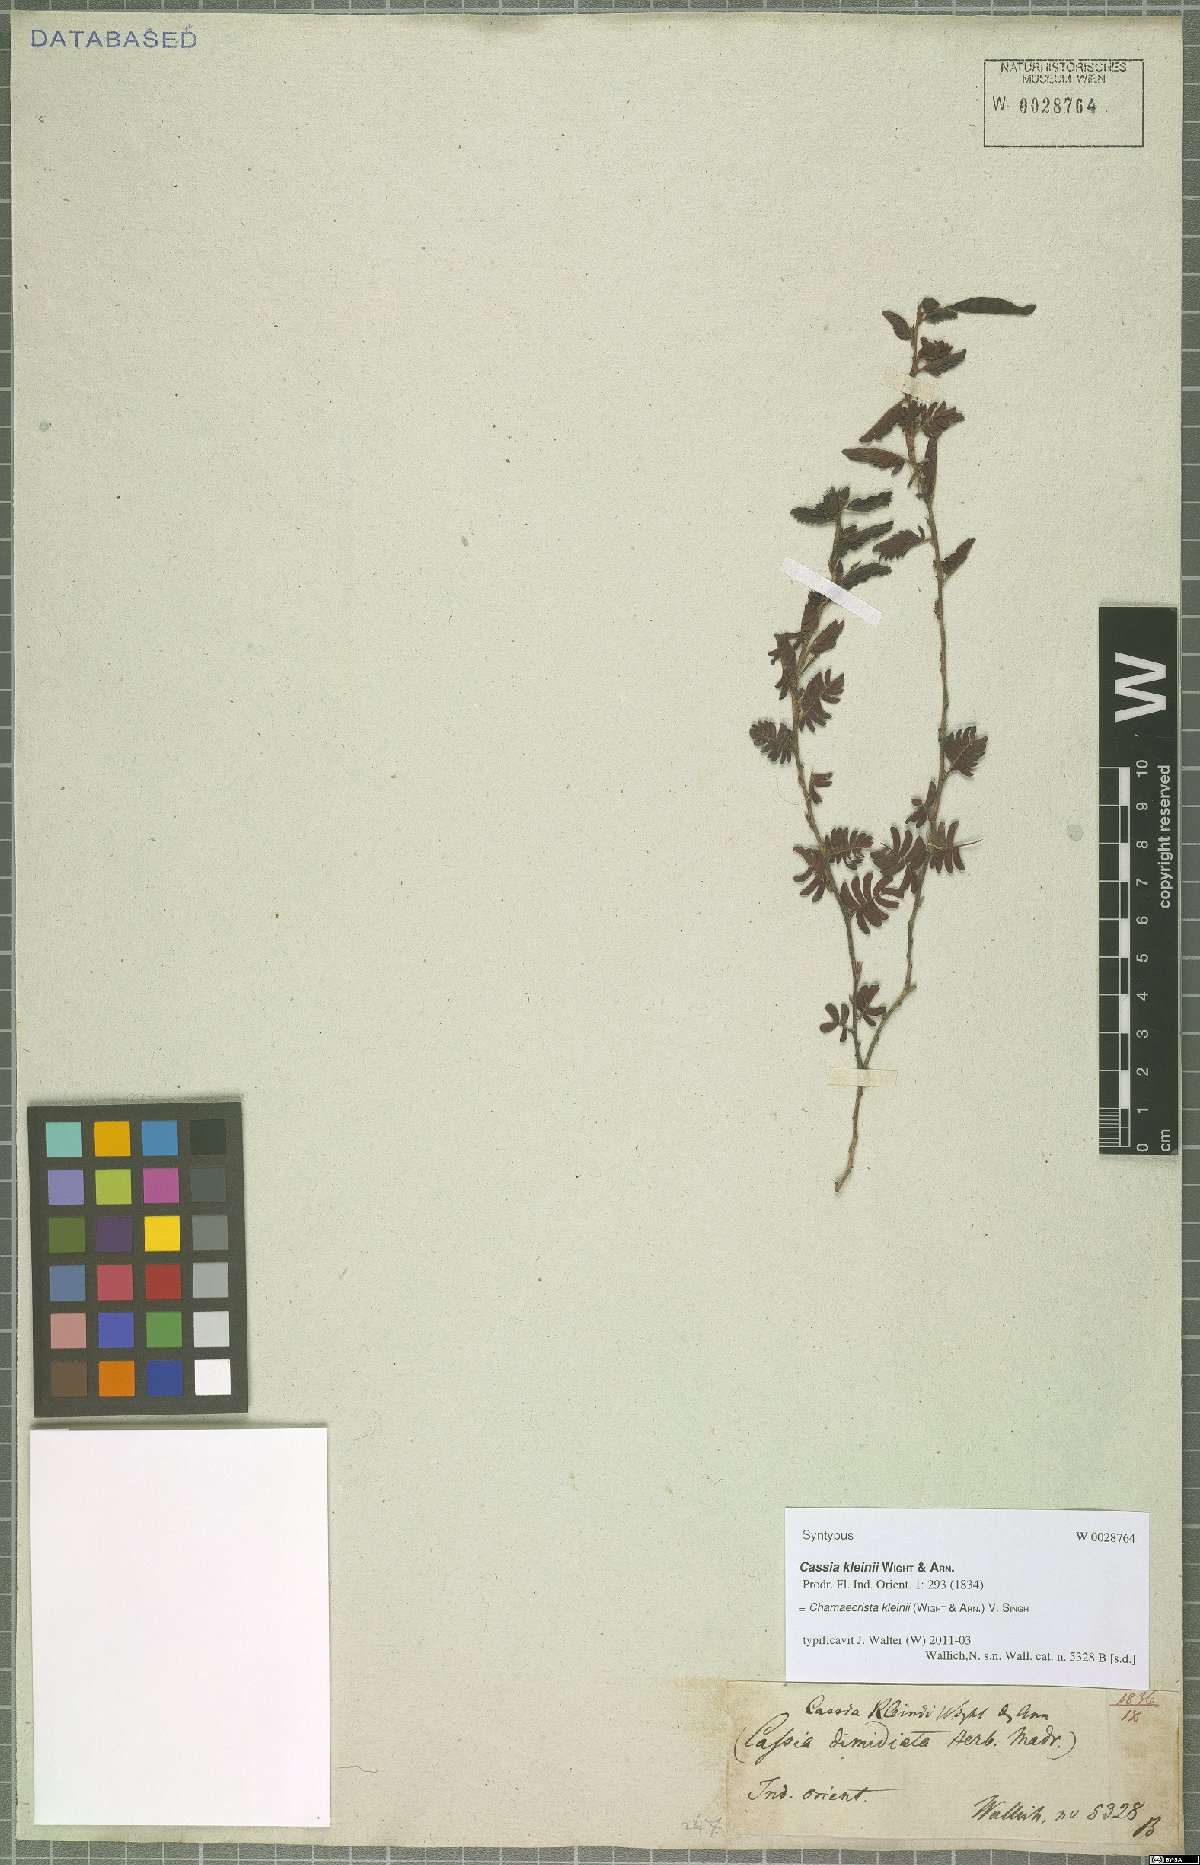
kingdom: Plantae
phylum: Tracheophyta
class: Magnoliopsida
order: Fabales
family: Fabaceae
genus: Chamaecrista
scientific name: Chamaecrista kleinii
